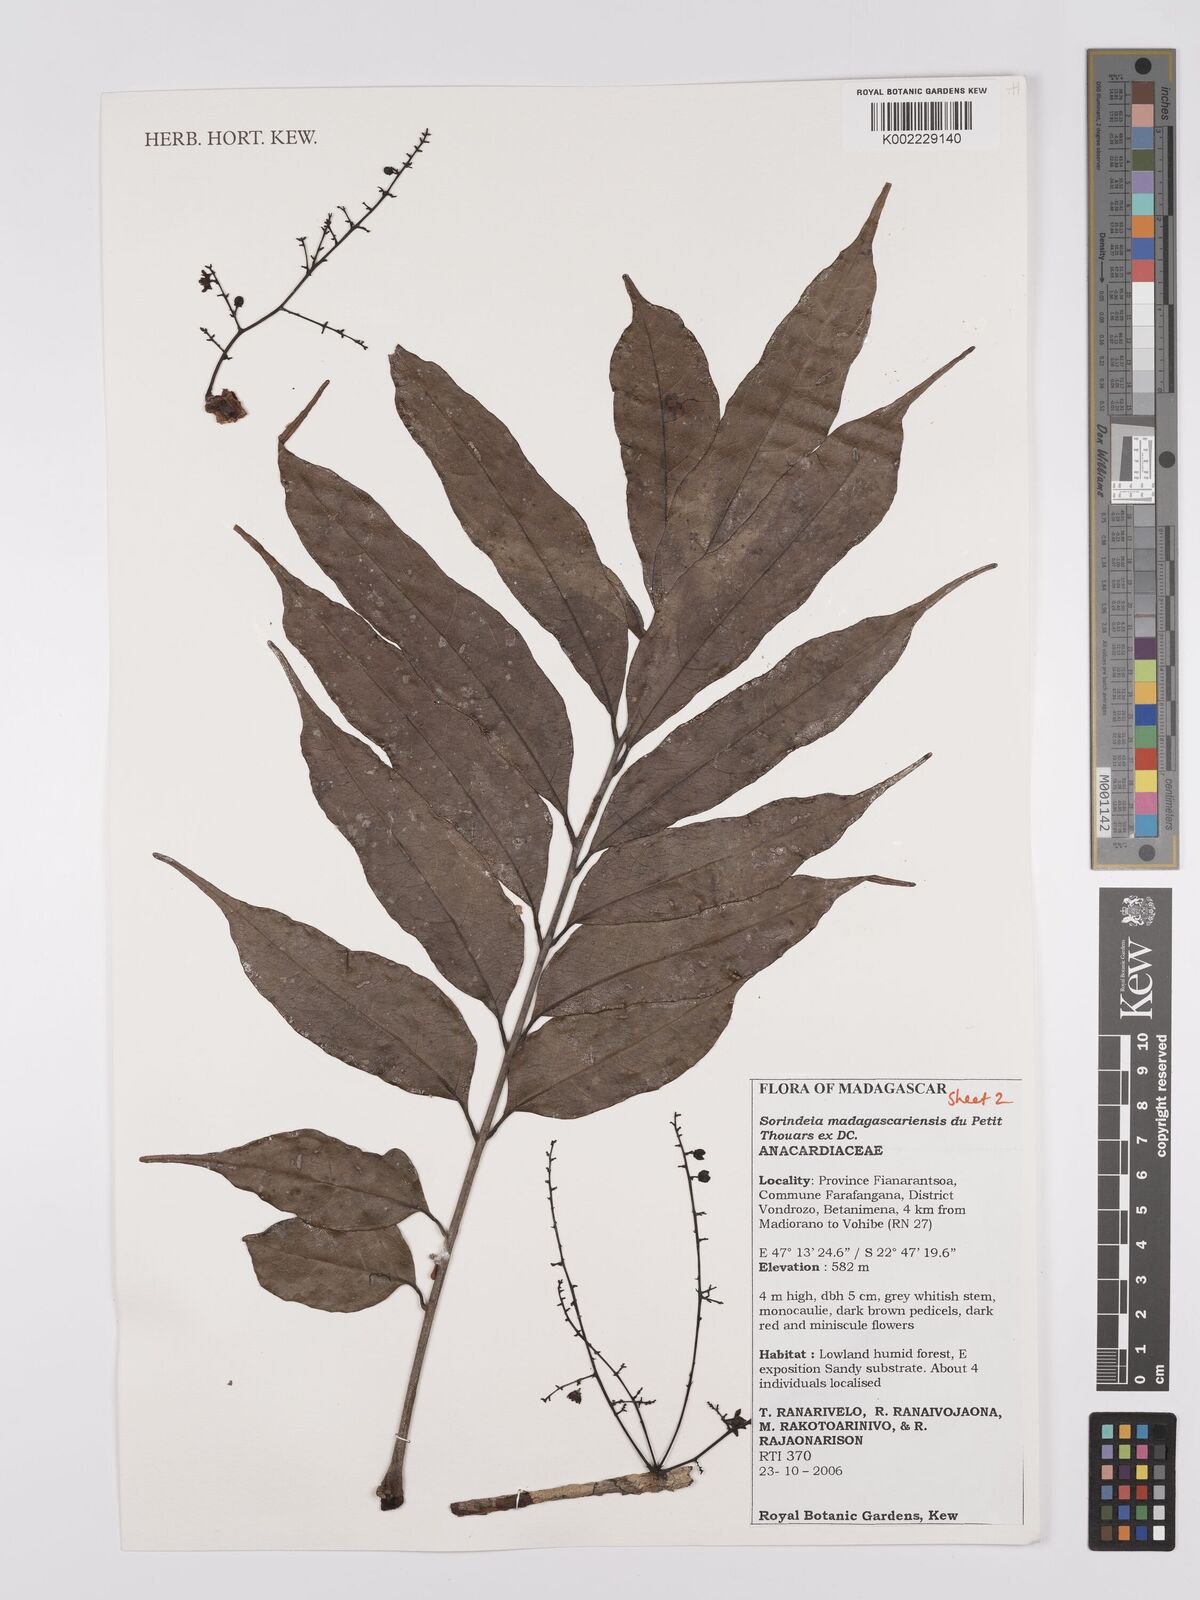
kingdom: Plantae
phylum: Tracheophyta
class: Magnoliopsida
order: Sapindales
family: Anacardiaceae
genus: Sorindeia
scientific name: Sorindeia madagascariensis
